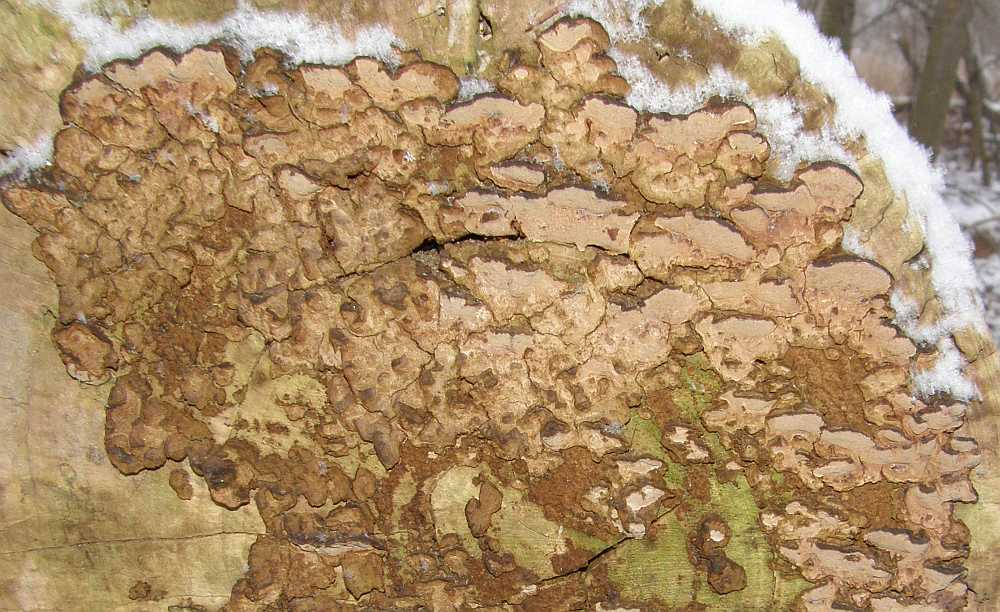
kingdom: Fungi
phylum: Basidiomycota
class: Agaricomycetes
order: Hymenochaetales
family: Hymenochaetaceae
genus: Phellinopsis
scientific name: Phellinopsis conchata
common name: pile-ildporesvamp
